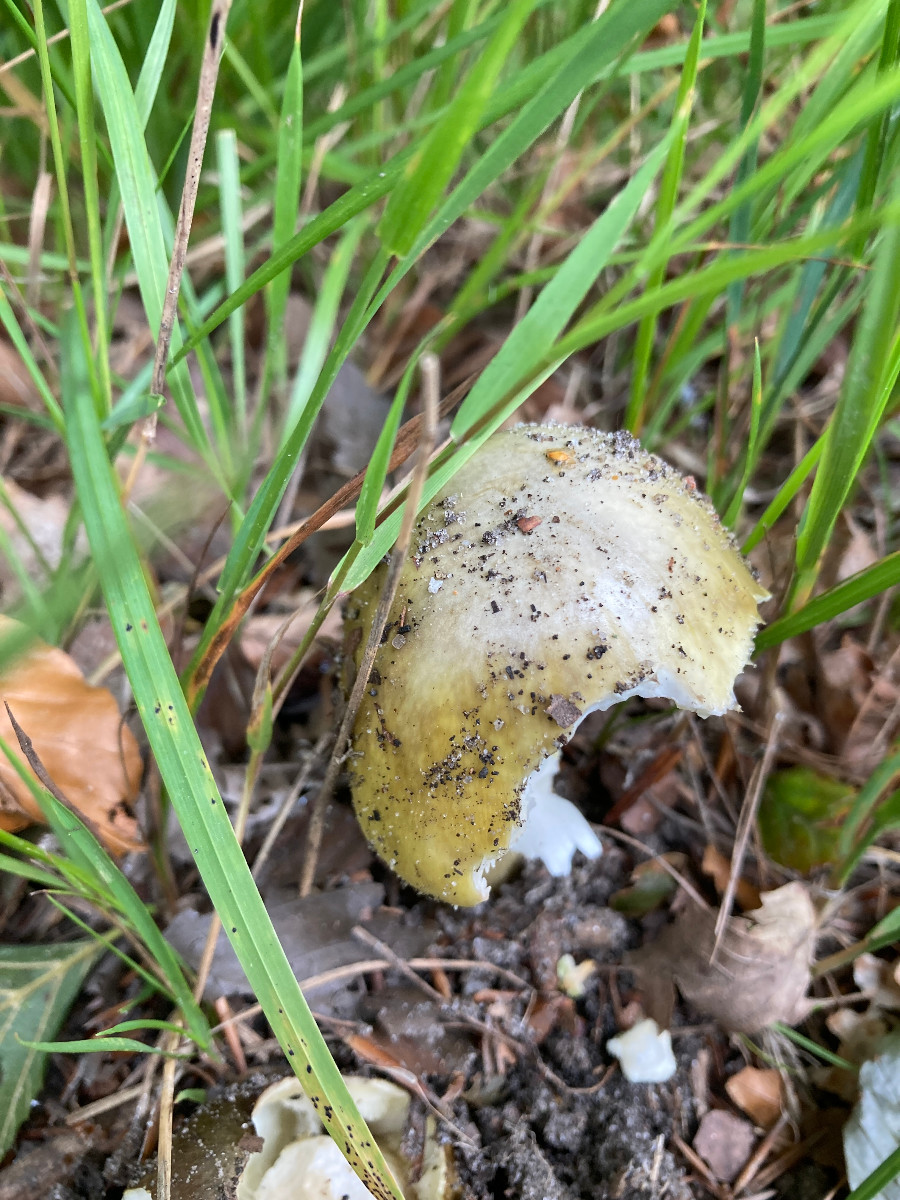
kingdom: Fungi
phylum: Basidiomycota
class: Agaricomycetes
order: Agaricales
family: Amanitaceae
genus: Amanita
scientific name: Amanita phalloides
